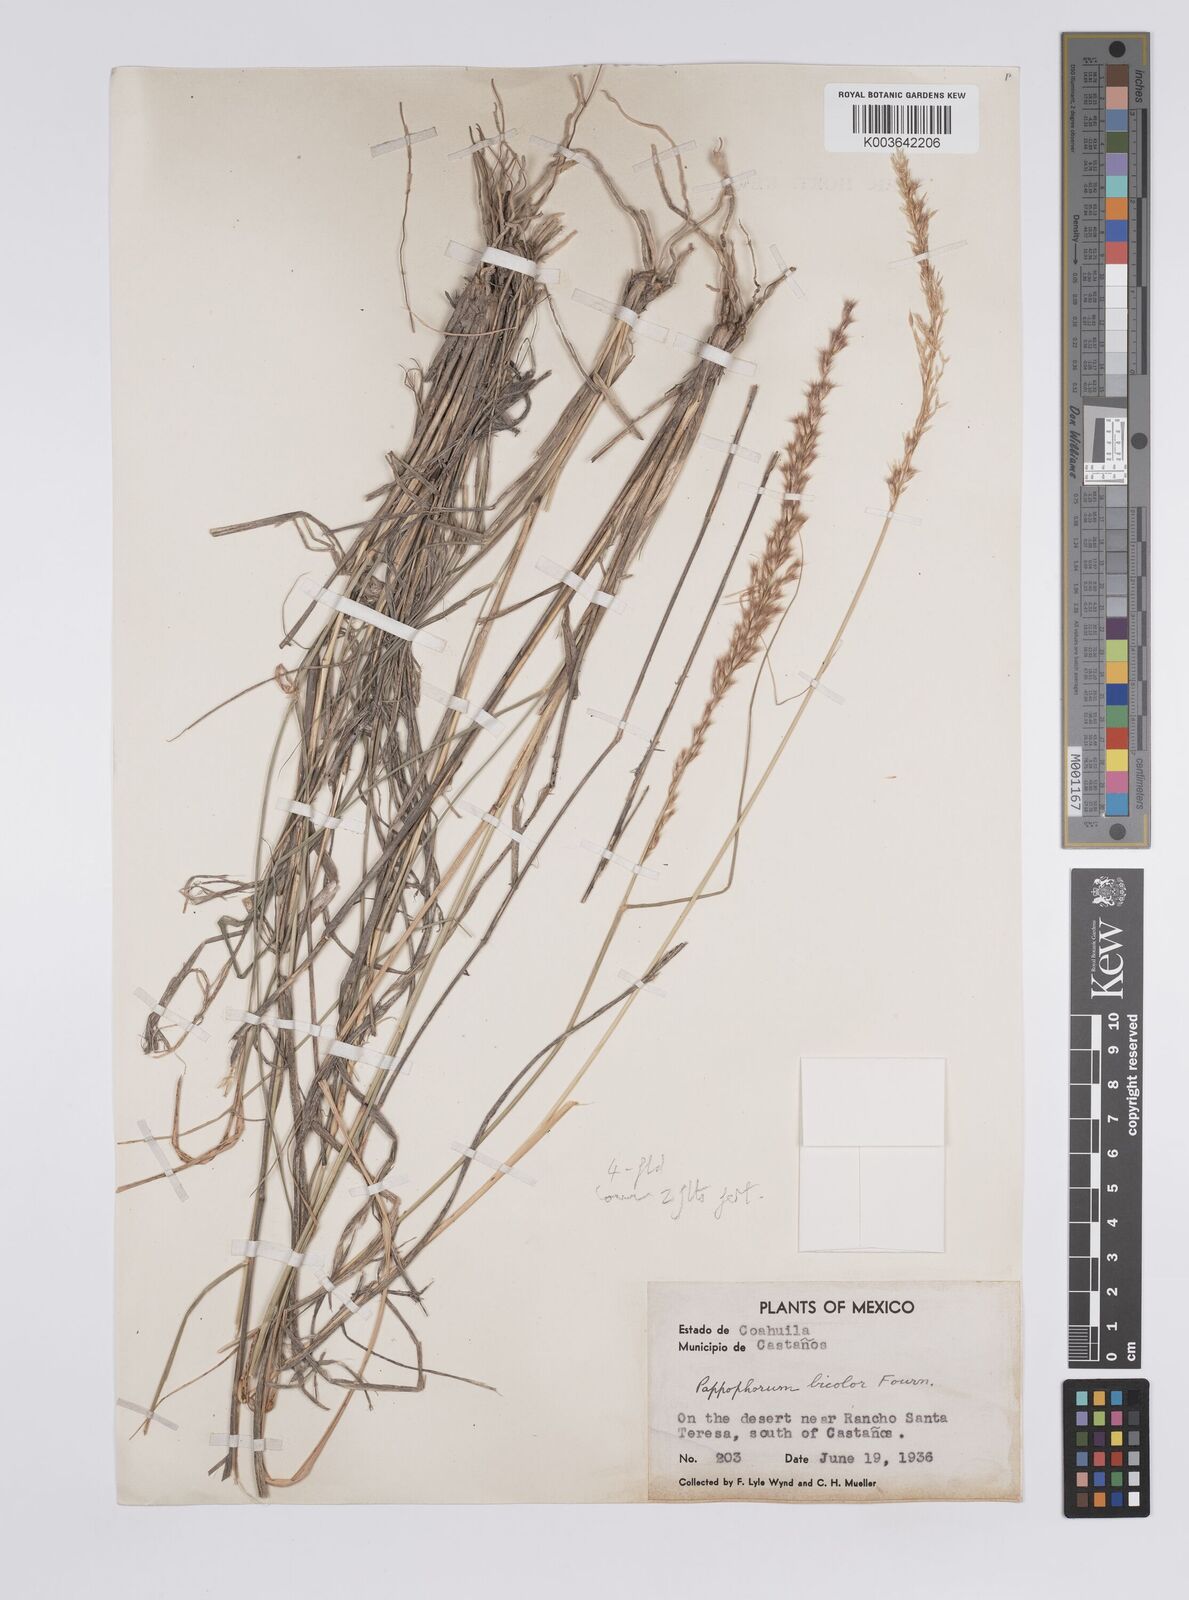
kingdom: Plantae
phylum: Tracheophyta
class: Liliopsida
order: Poales
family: Poaceae
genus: Pappophorum
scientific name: Pappophorum bicolor
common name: Pink pappus grass
